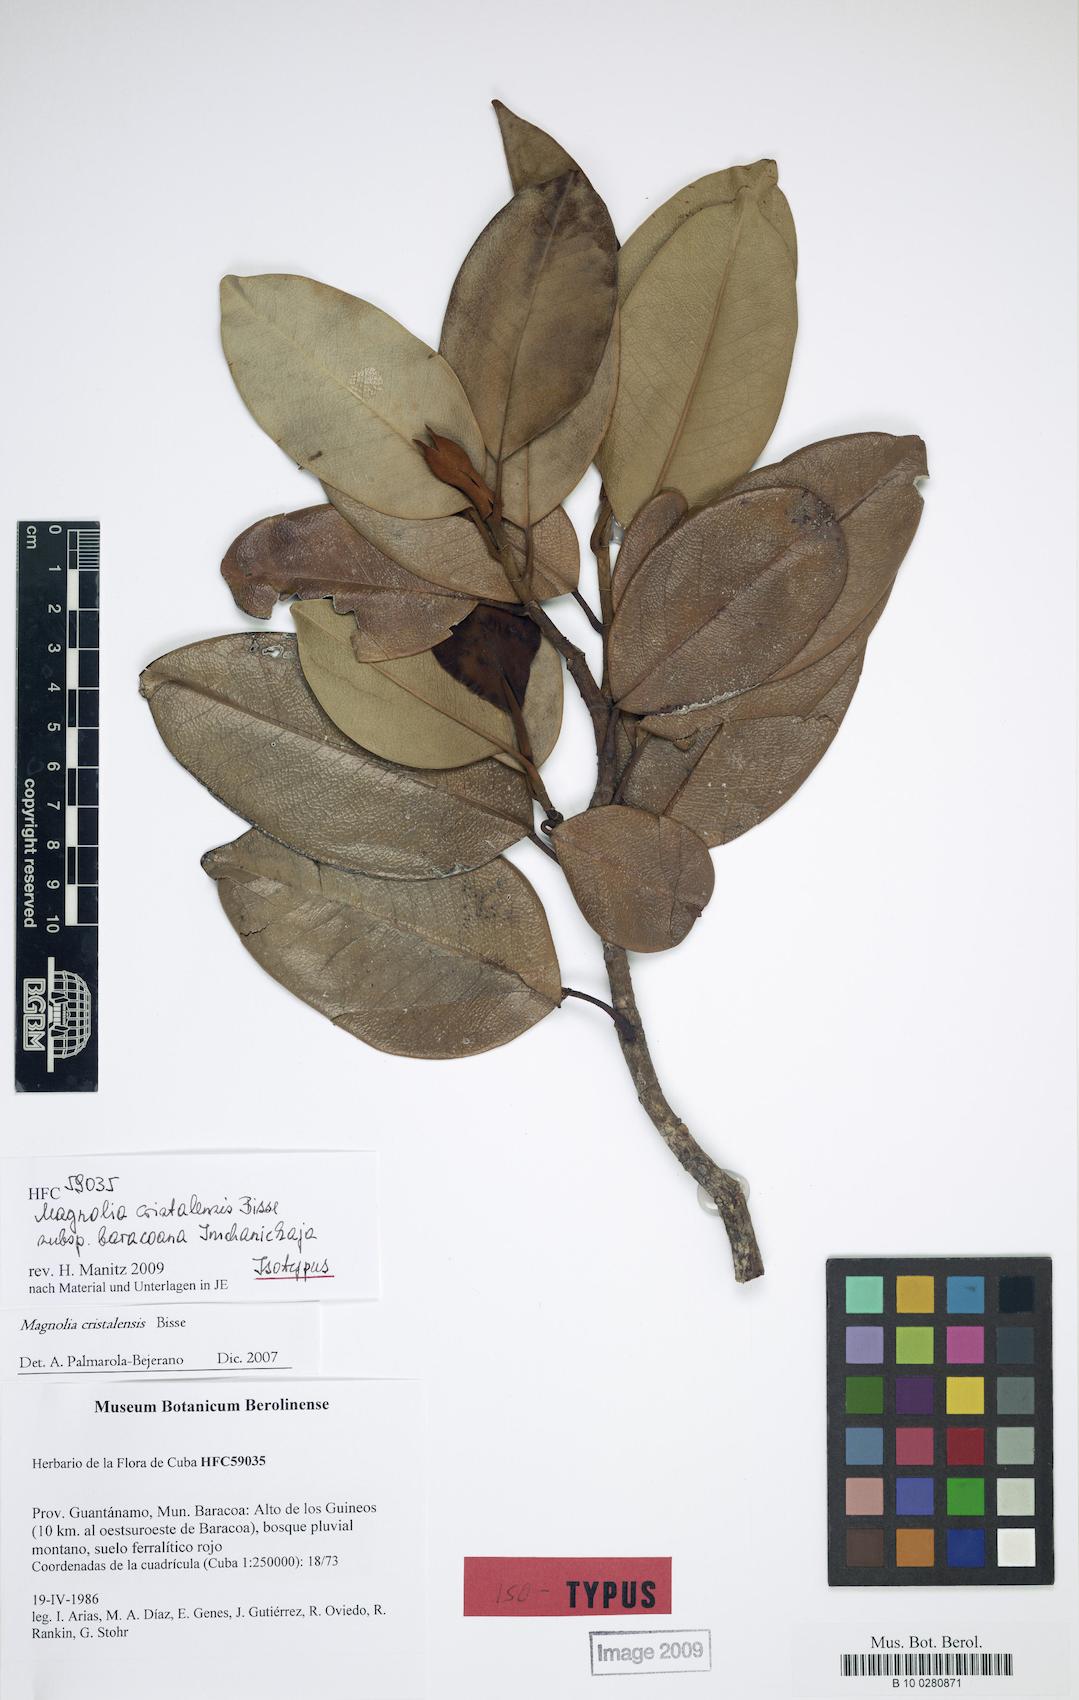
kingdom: Plantae
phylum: Tracheophyta
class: Magnoliopsida
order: Magnoliales
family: Magnoliaceae
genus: Magnolia
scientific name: Magnolia cristalensis
